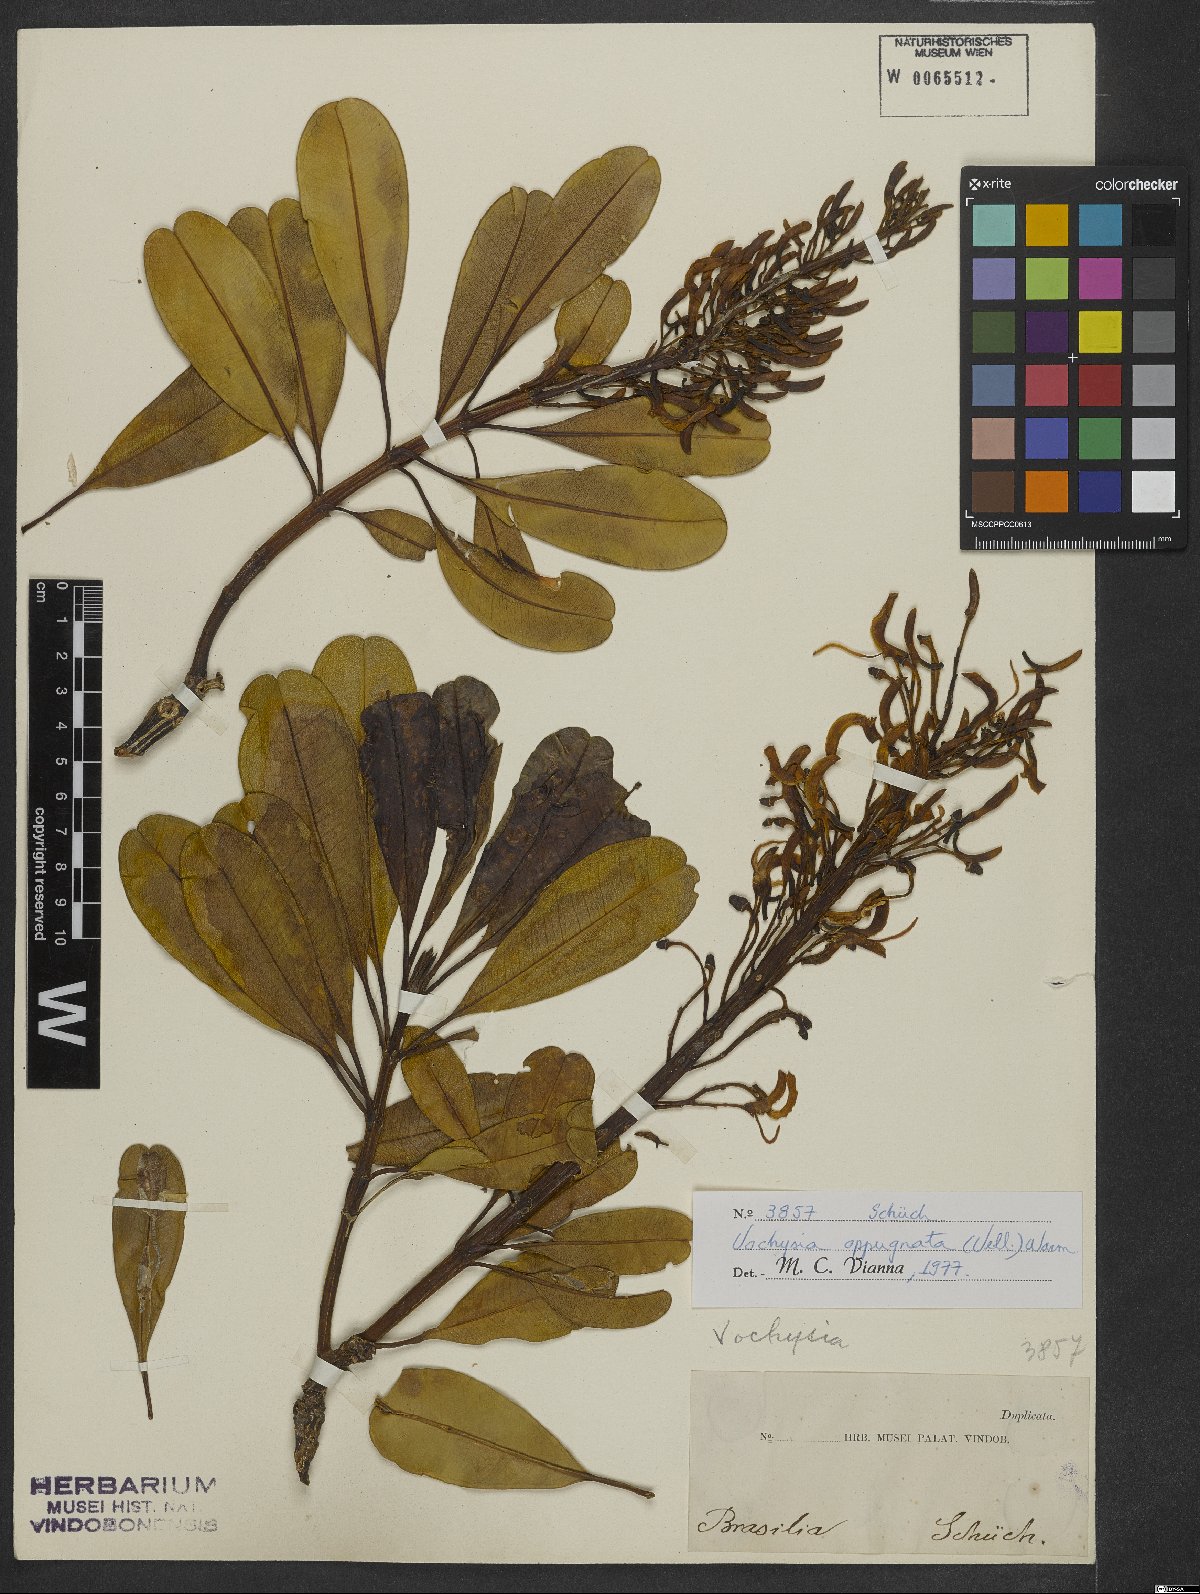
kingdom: Plantae
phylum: Tracheophyta
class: Magnoliopsida
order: Myrtales
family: Vochysiaceae
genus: Vochysia
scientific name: Vochysia oppugnata
